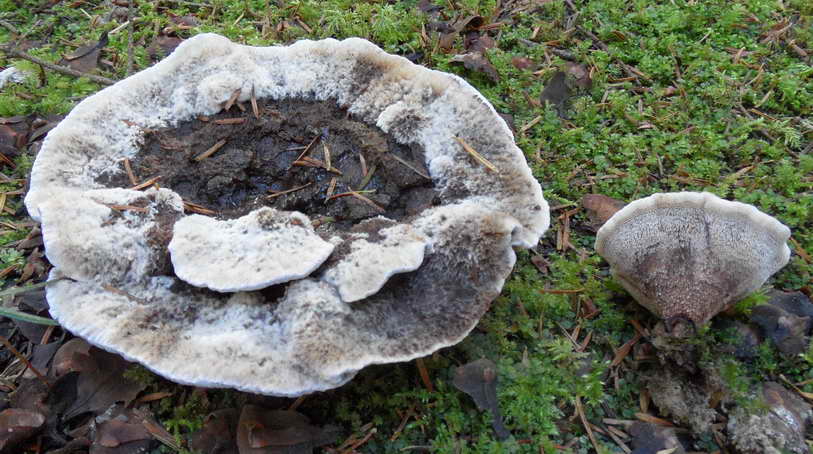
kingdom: Fungi
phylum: Basidiomycota
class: Agaricomycetes
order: Thelephorales
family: Bankeraceae
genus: Hydnellum
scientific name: Hydnellum caeruleum
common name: blålig korkpigsvamp
